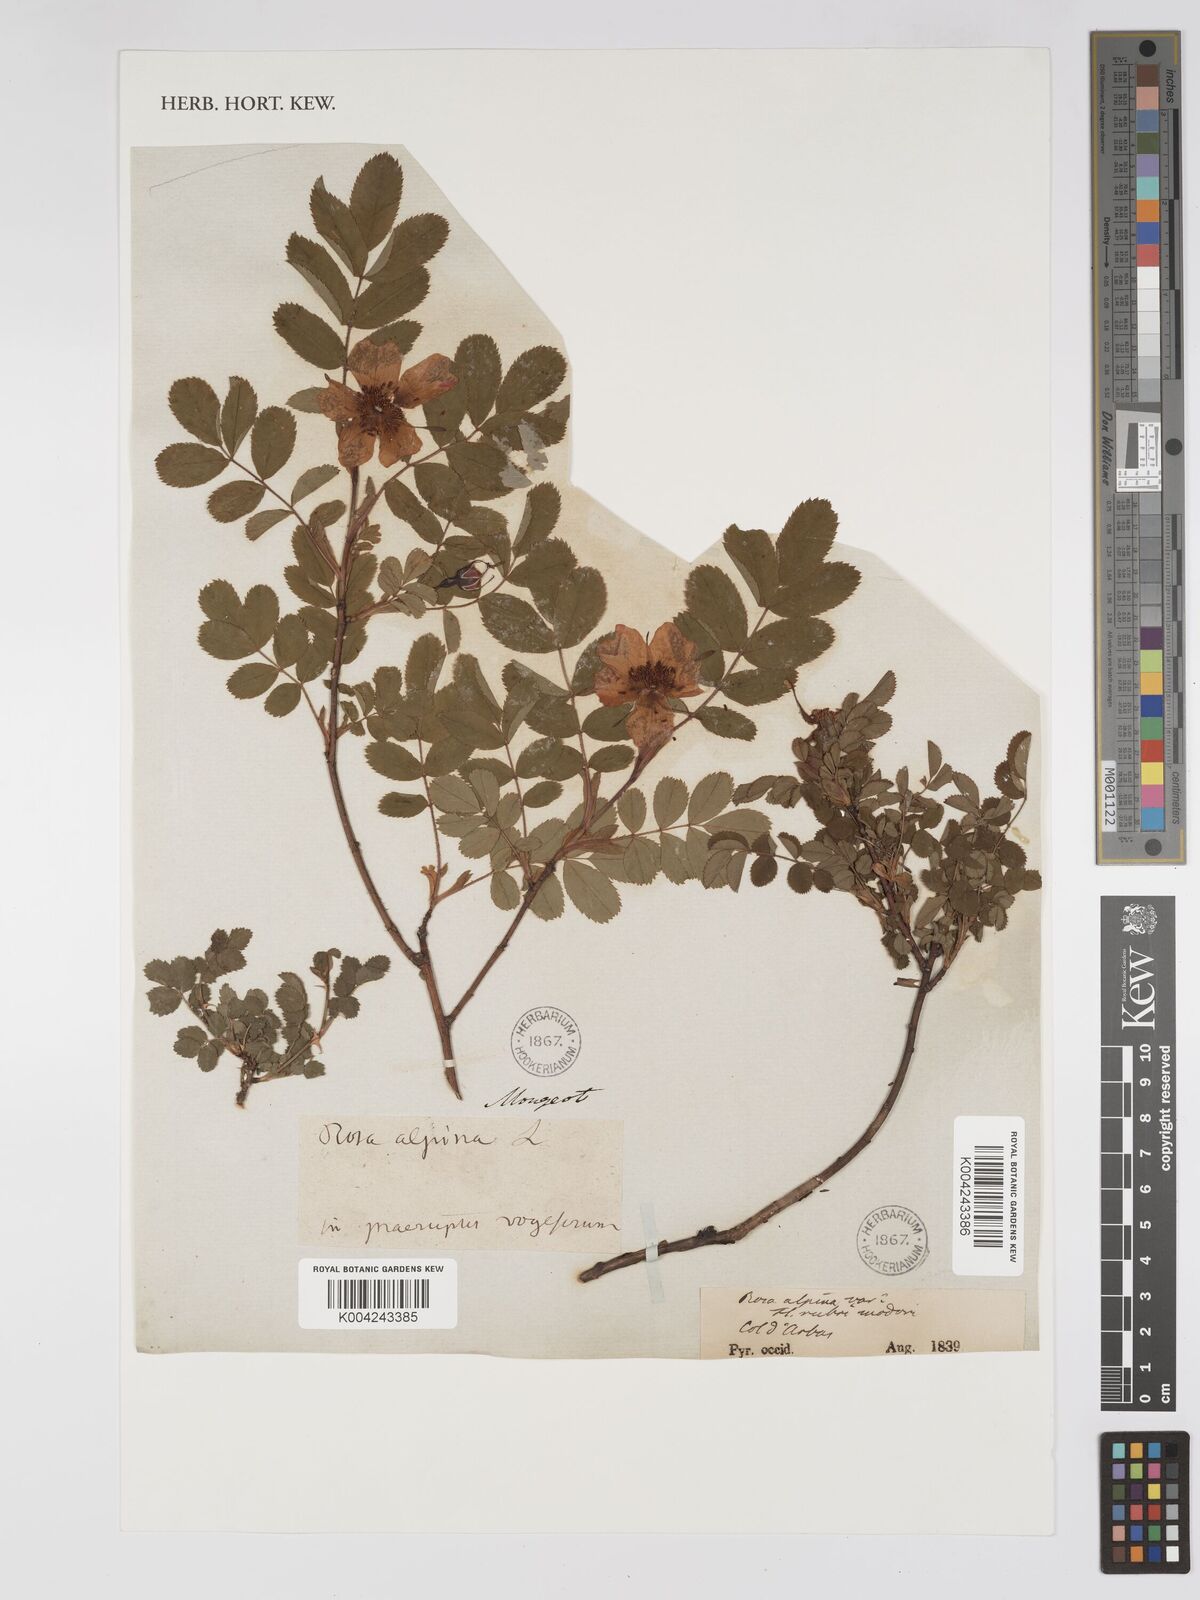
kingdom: Plantae
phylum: Tracheophyta
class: Magnoliopsida
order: Rosales
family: Rosaceae
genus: Rosa
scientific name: Rosa acicularis
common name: Prickly rose
